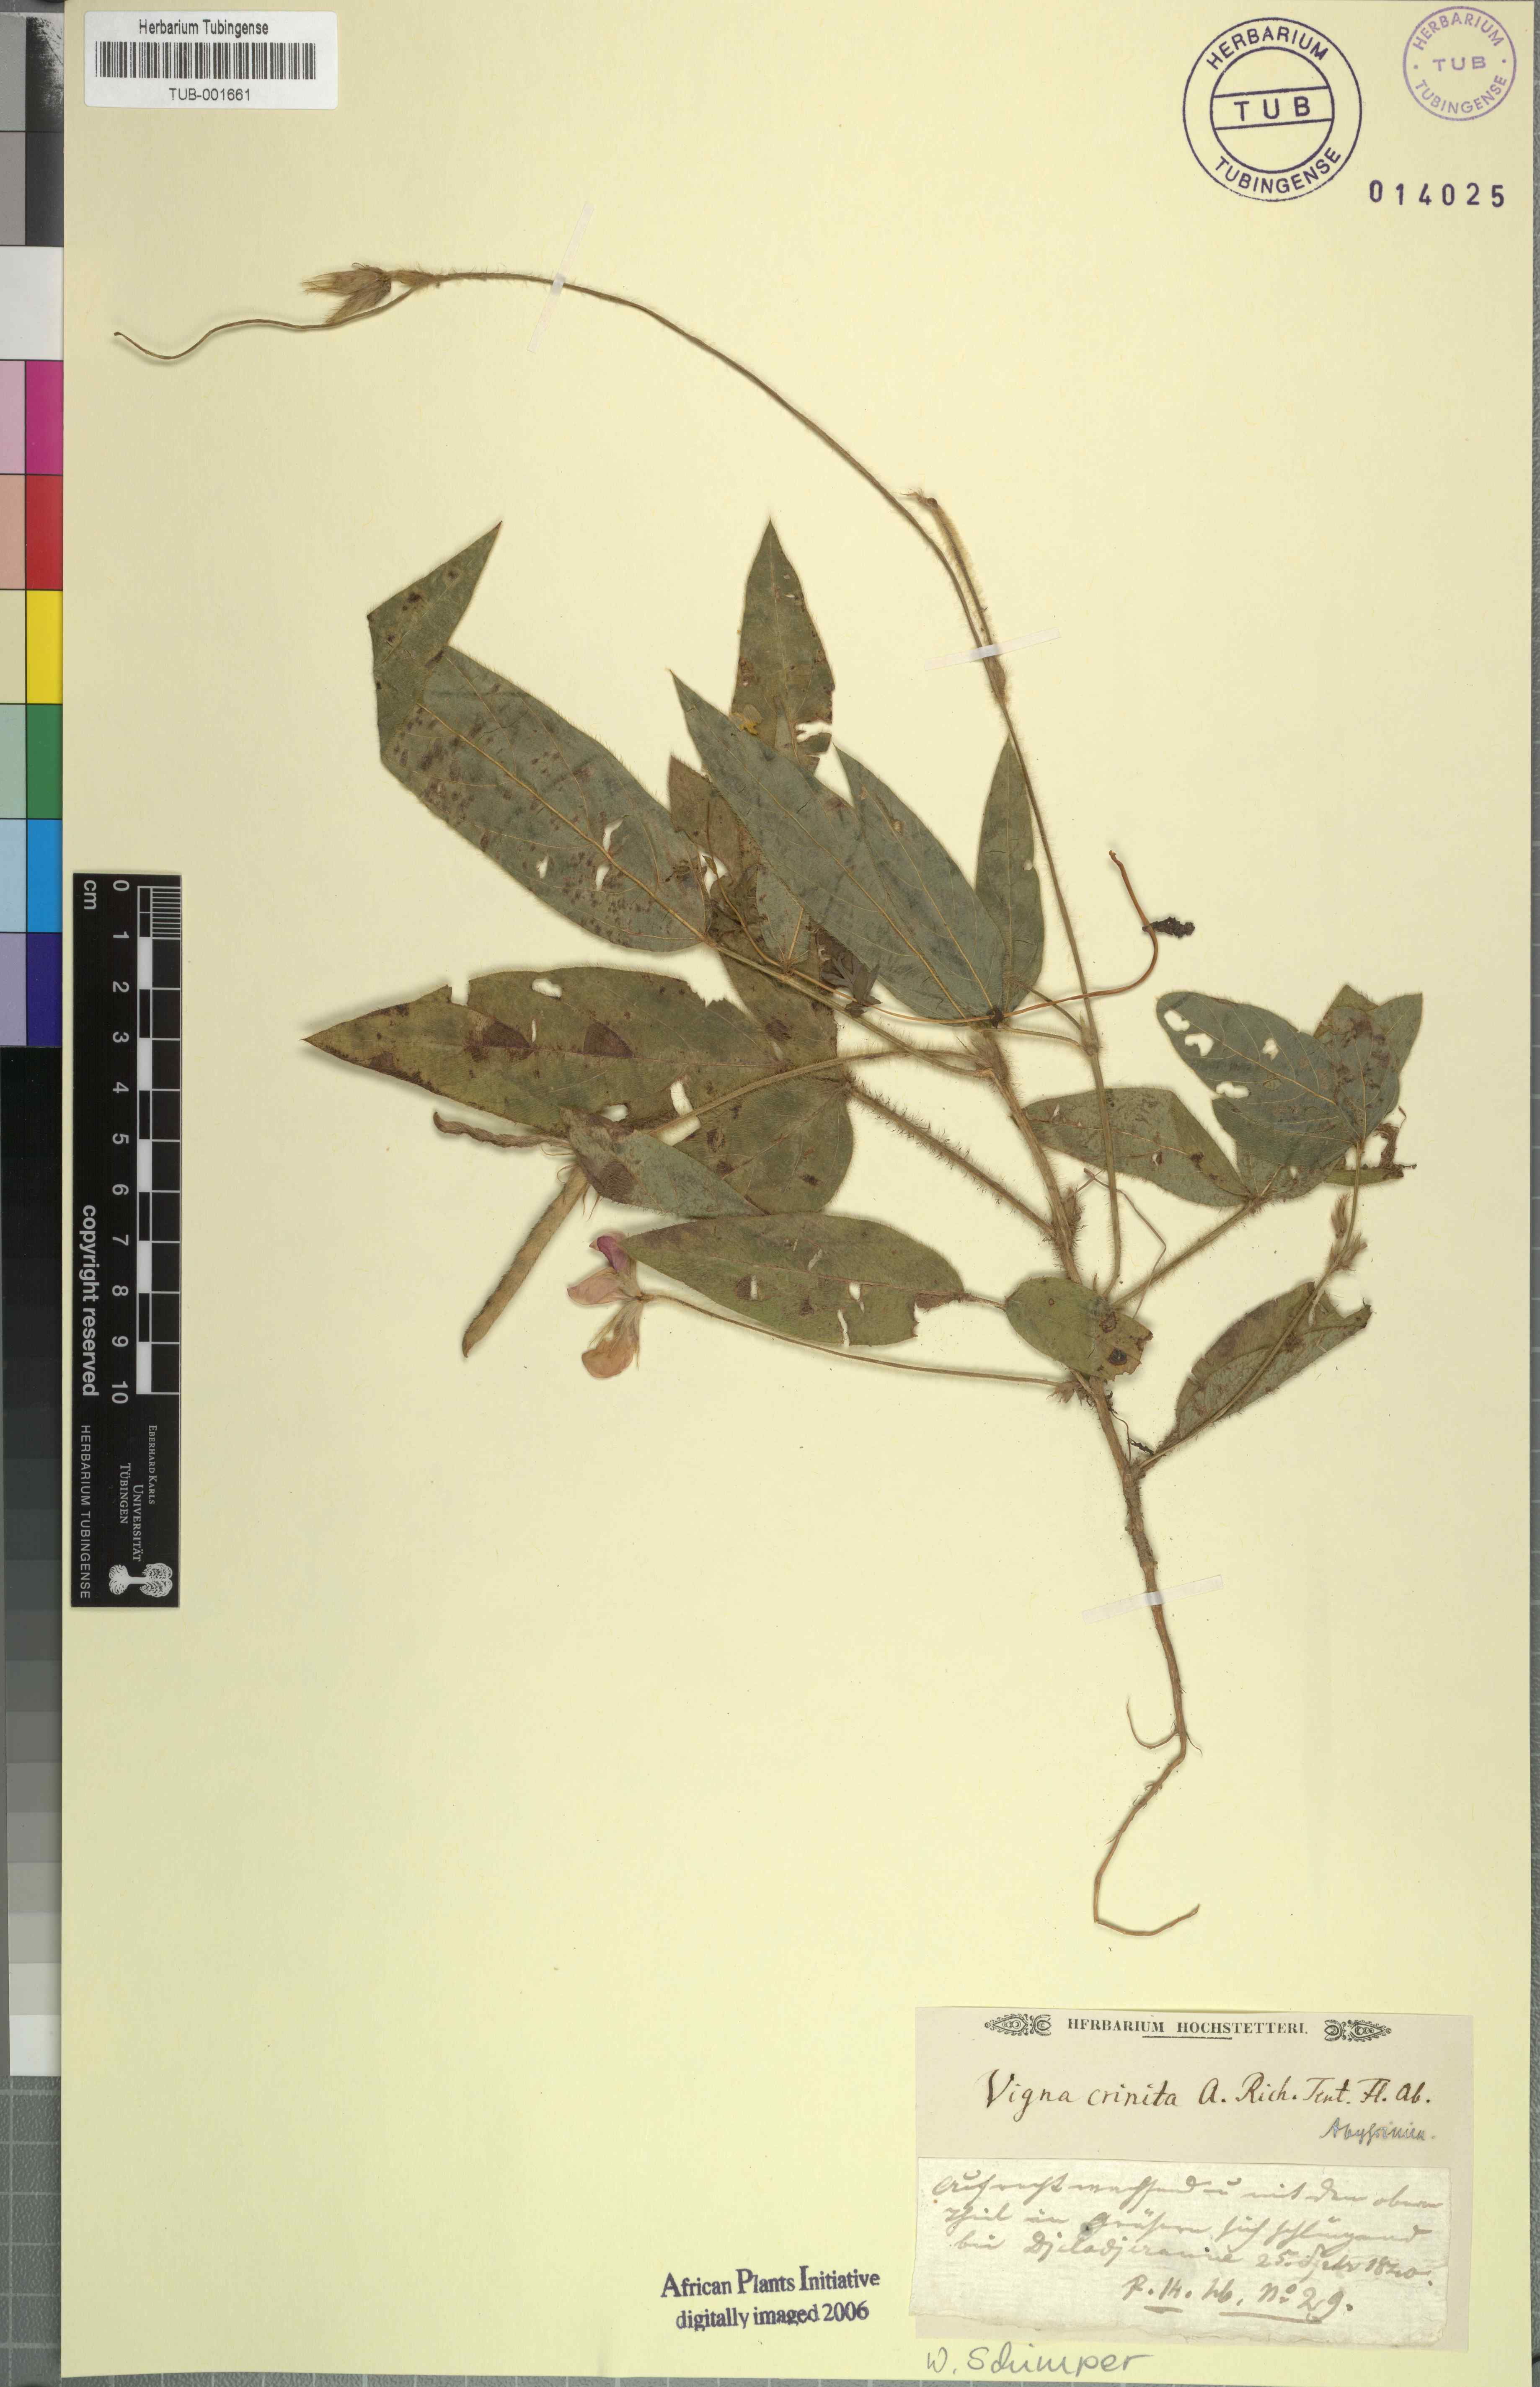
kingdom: Plantae
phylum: Tracheophyta
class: Magnoliopsida
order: Fabales
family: Fabaceae
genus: Vigna
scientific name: Vigna vexillata
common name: Zombi pea
